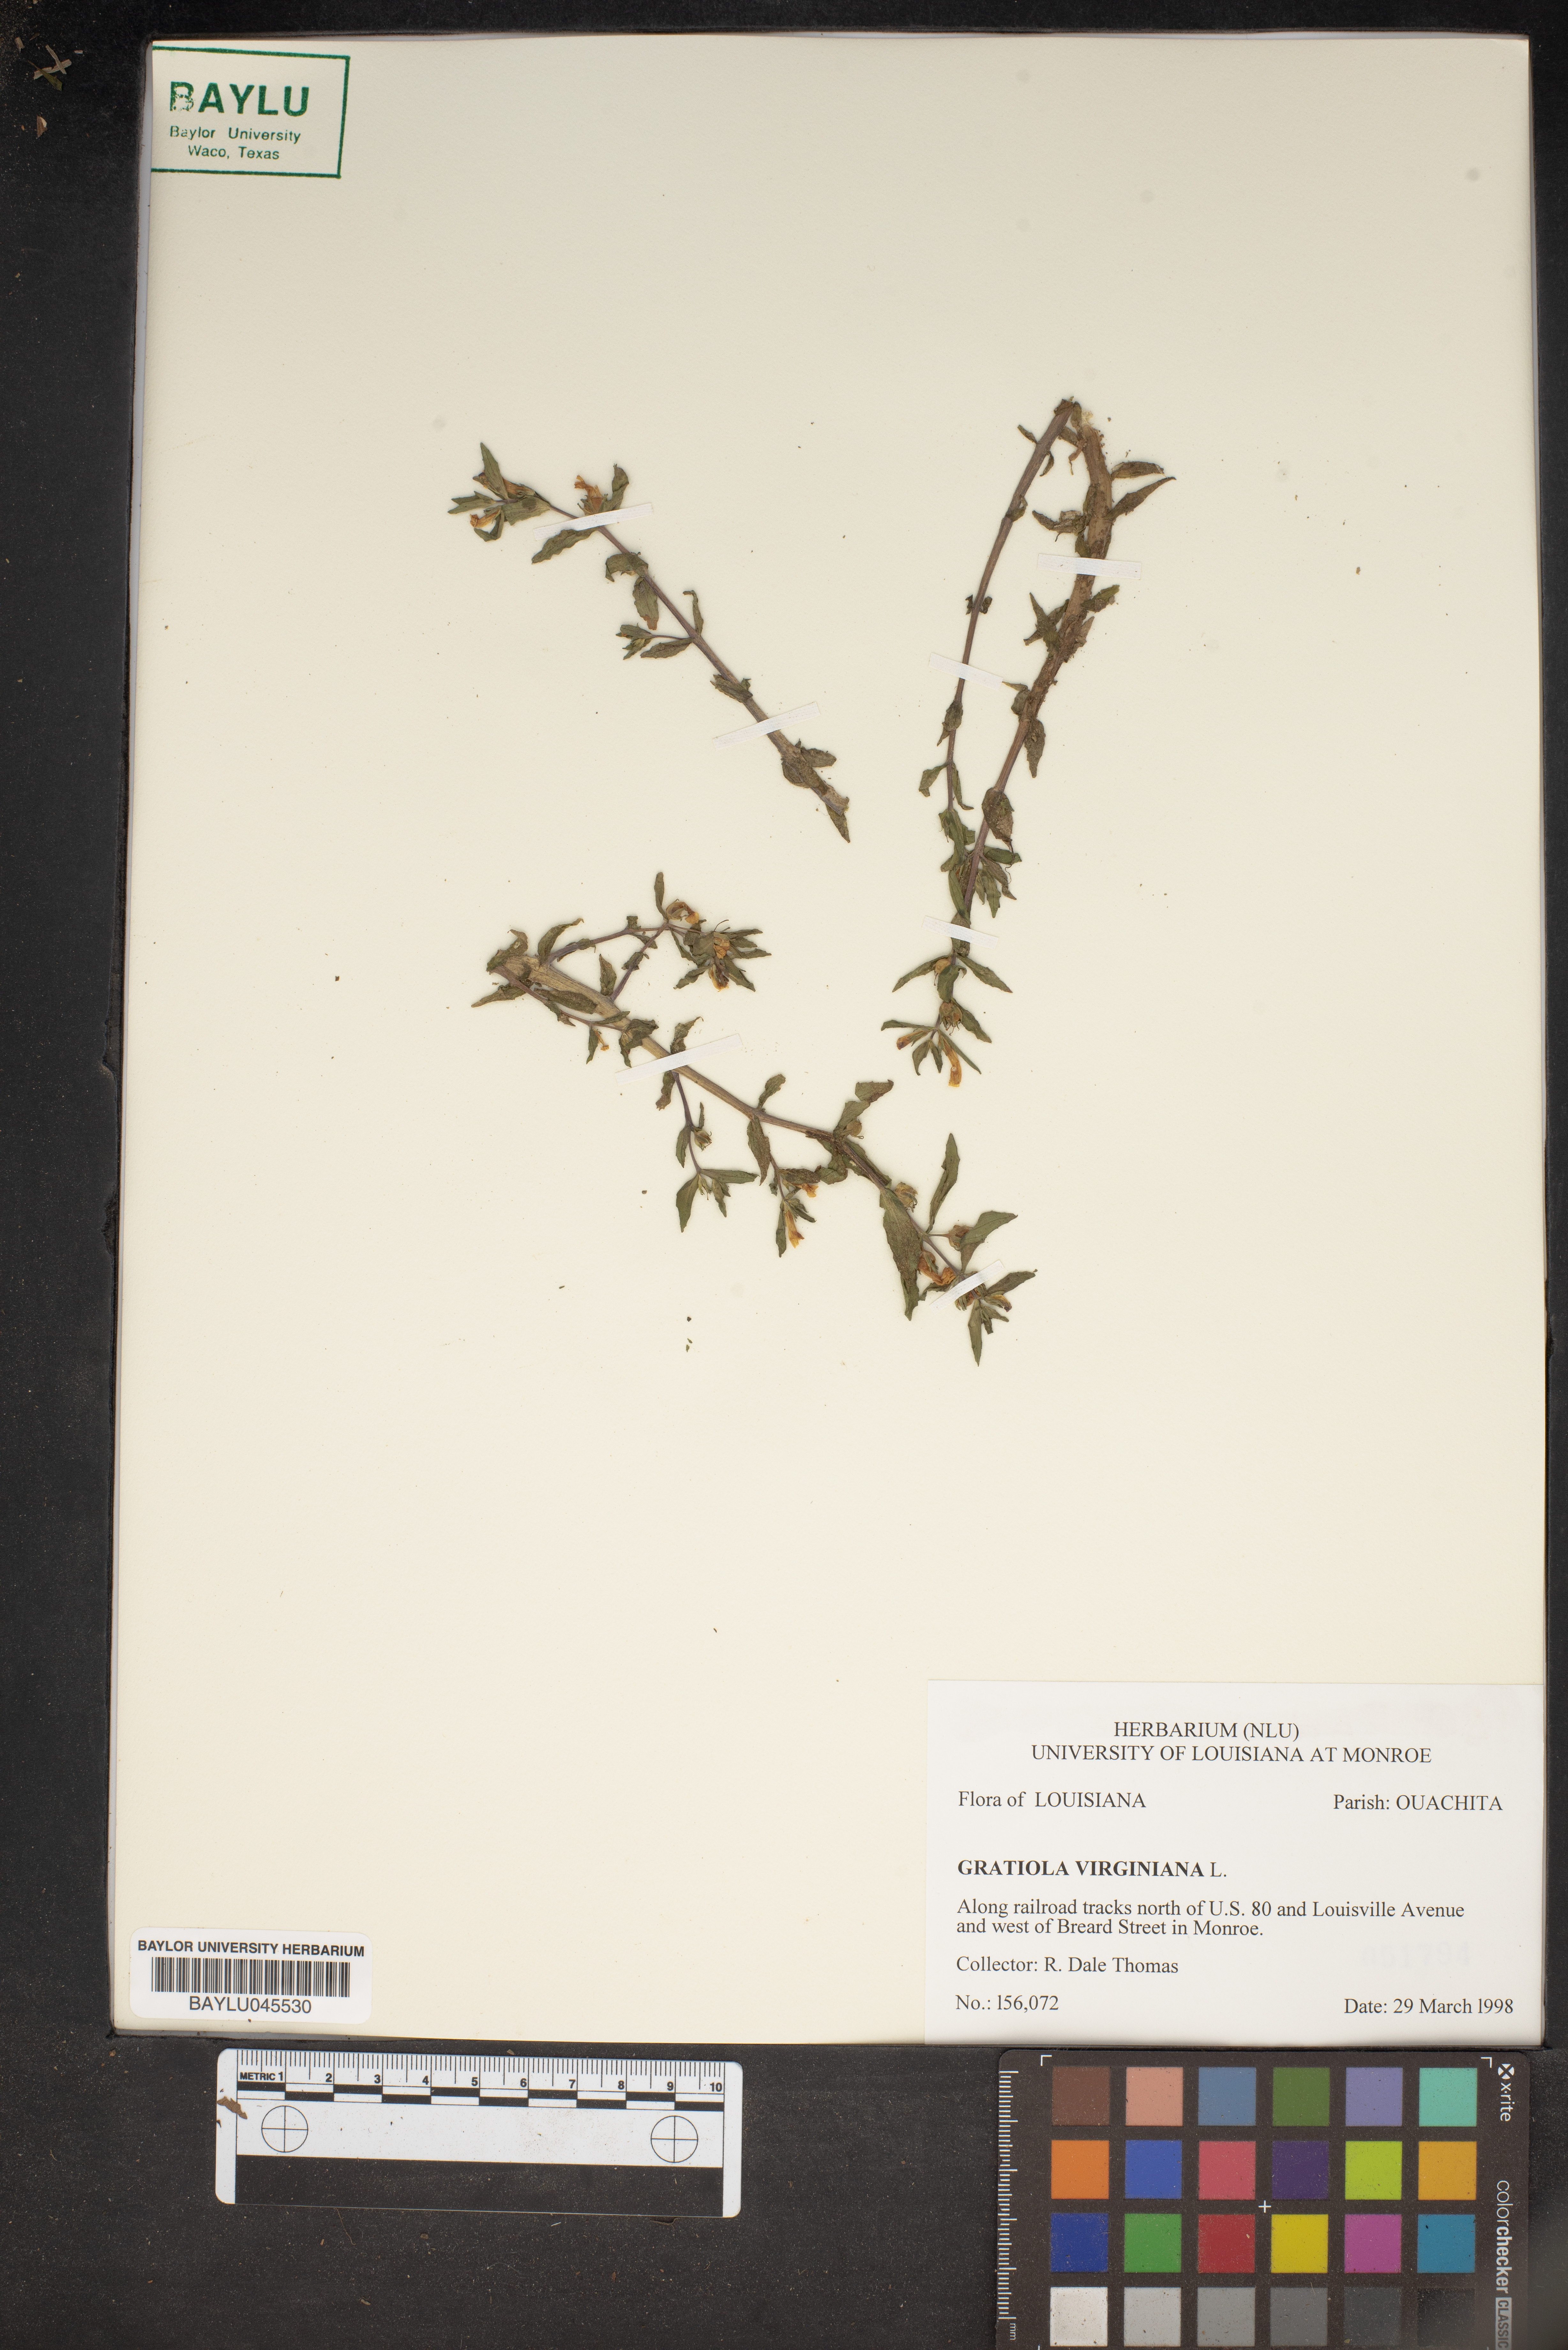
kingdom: Plantae
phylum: Tracheophyta
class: Magnoliopsida
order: Lamiales
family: Plantaginaceae
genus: Gratiola
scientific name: Gratiola virginiana
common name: Roundfruit hedgehyssop
